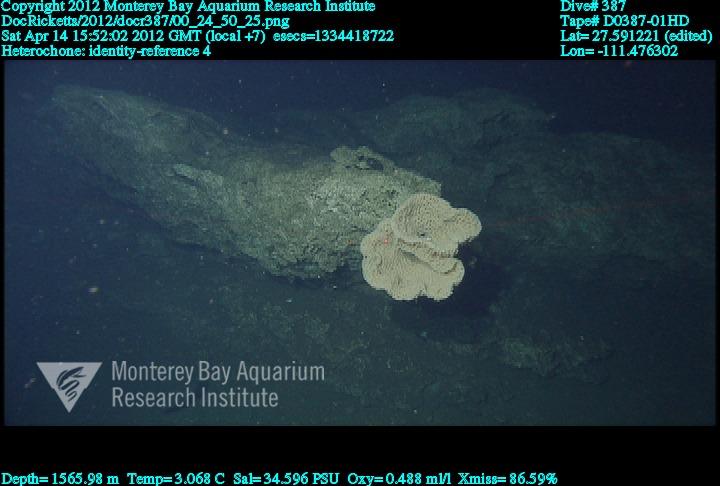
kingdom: Animalia
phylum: Porifera
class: Hexactinellida
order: Sceptrulophora
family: Aphrocallistidae
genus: Heterochone
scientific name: Heterochone
